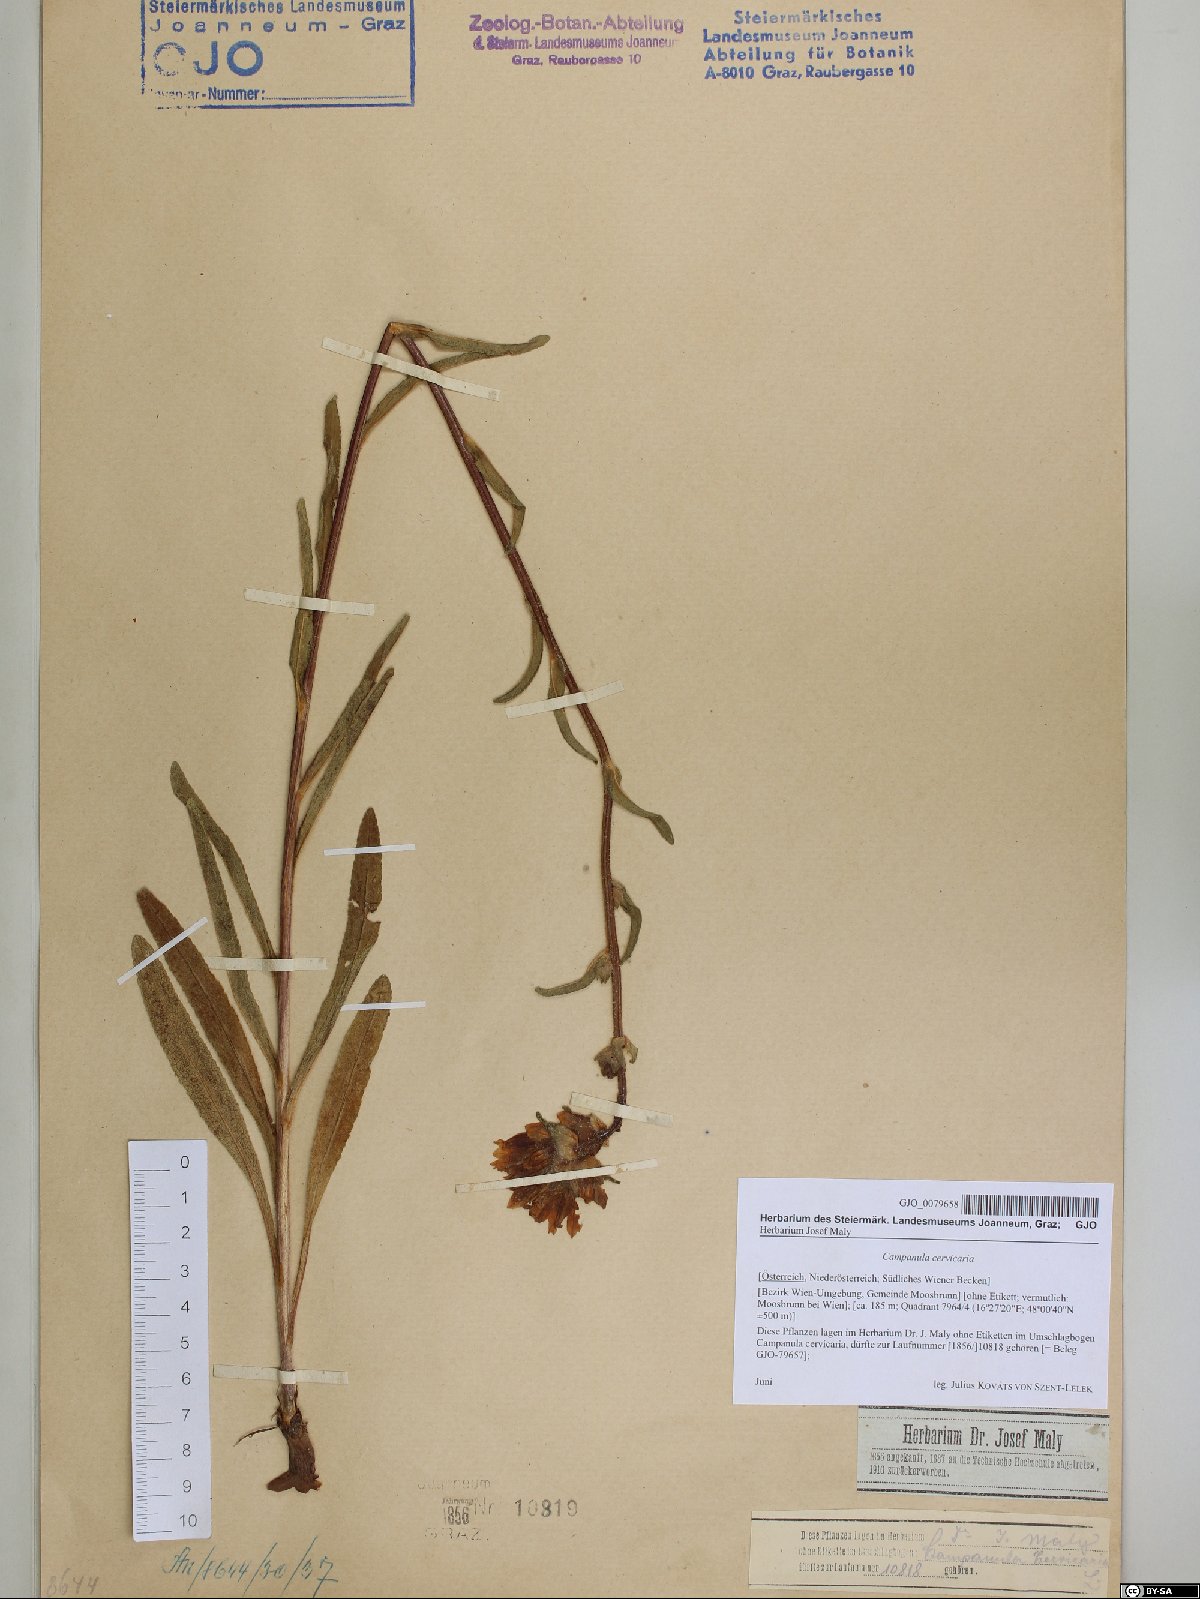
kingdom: Plantae
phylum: Tracheophyta
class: Magnoliopsida
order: Asterales
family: Campanulaceae
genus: Campanula
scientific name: Campanula cervicaria
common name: Bristly bellflower
